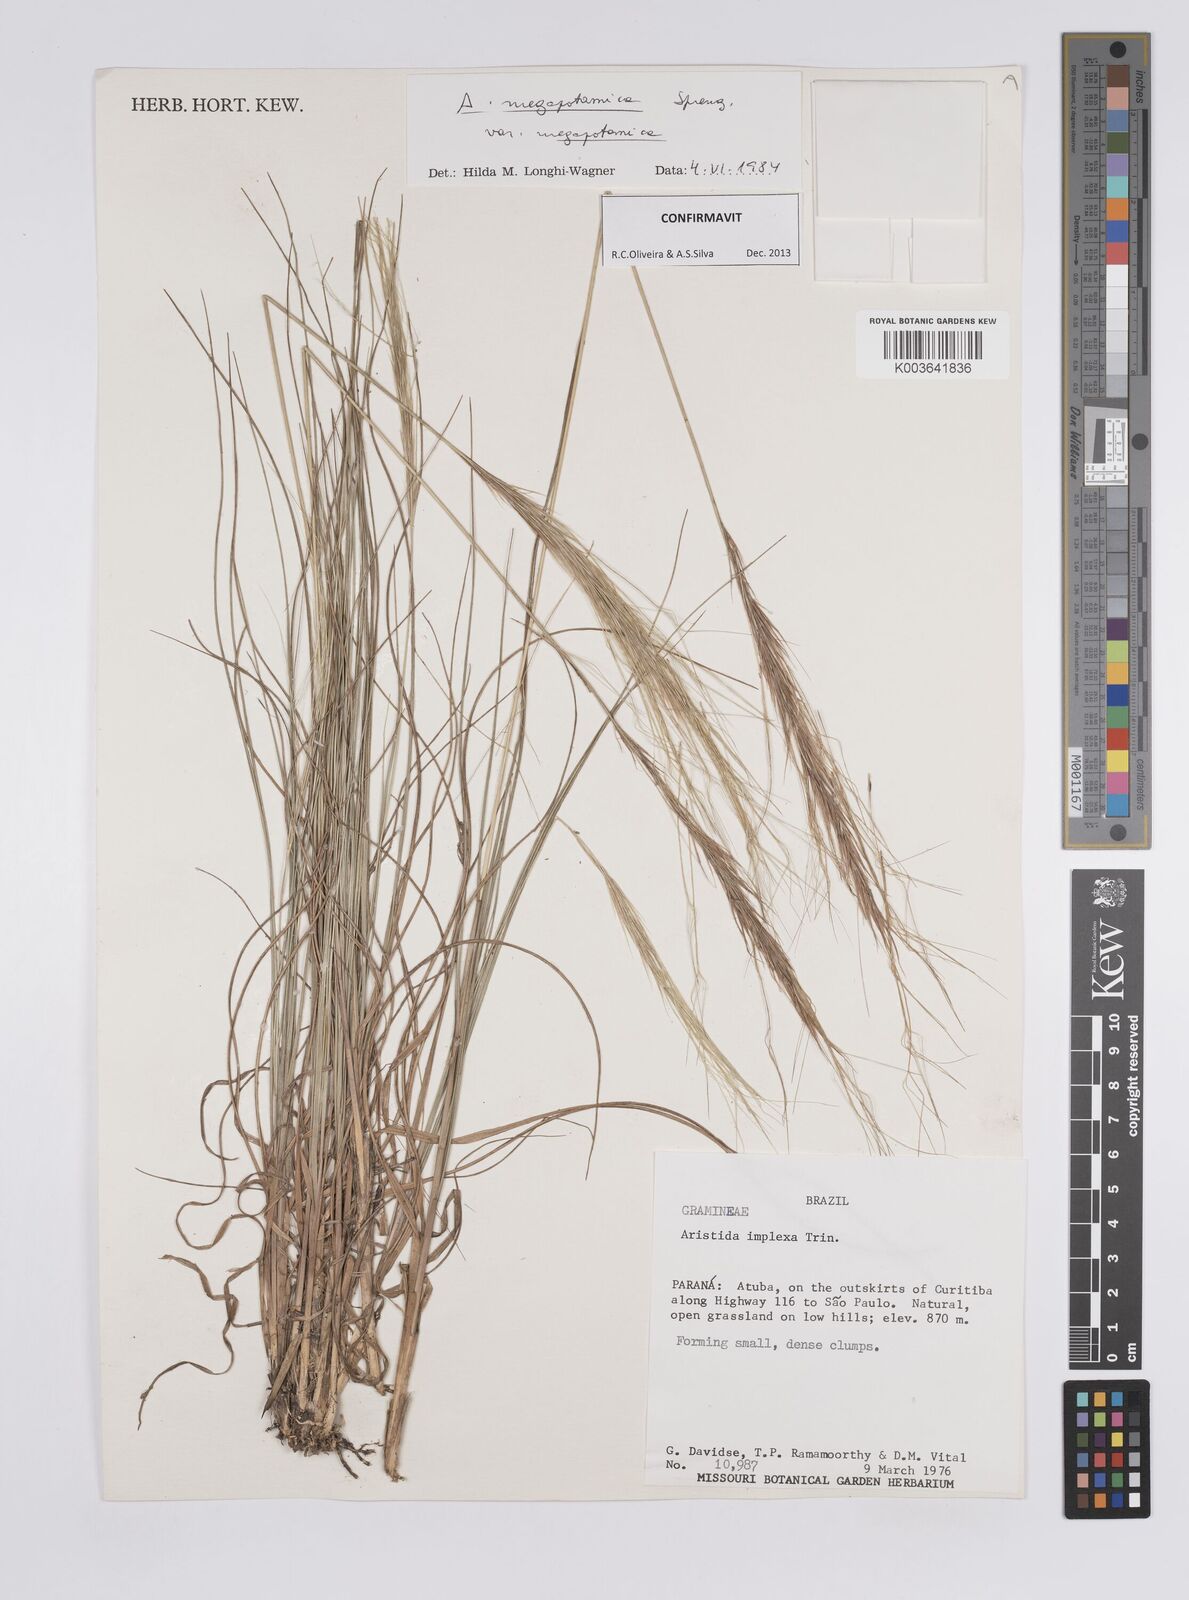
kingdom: Plantae
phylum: Tracheophyta
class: Liliopsida
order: Poales
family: Poaceae
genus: Aristida
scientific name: Aristida megapotamica
